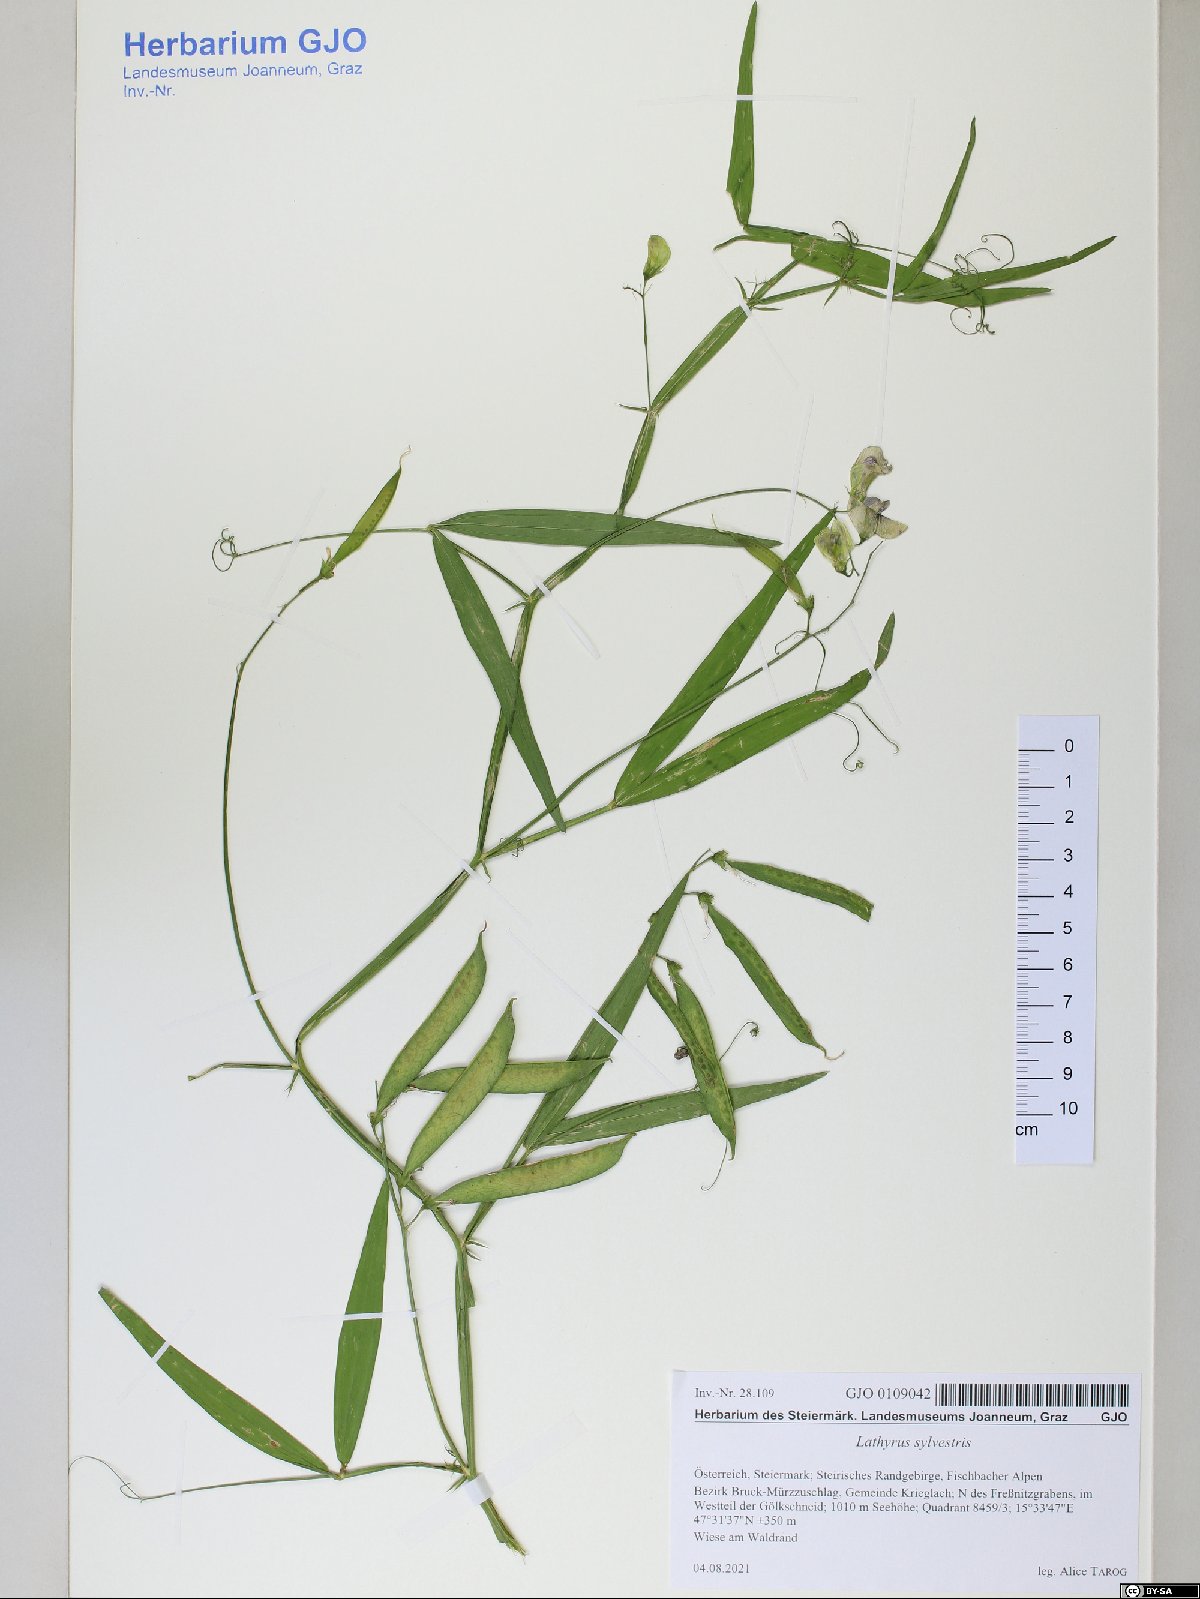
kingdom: Plantae
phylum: Tracheophyta
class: Magnoliopsida
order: Fabales
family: Fabaceae
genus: Lathyrus
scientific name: Lathyrus sylvestris
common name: Flat pea
